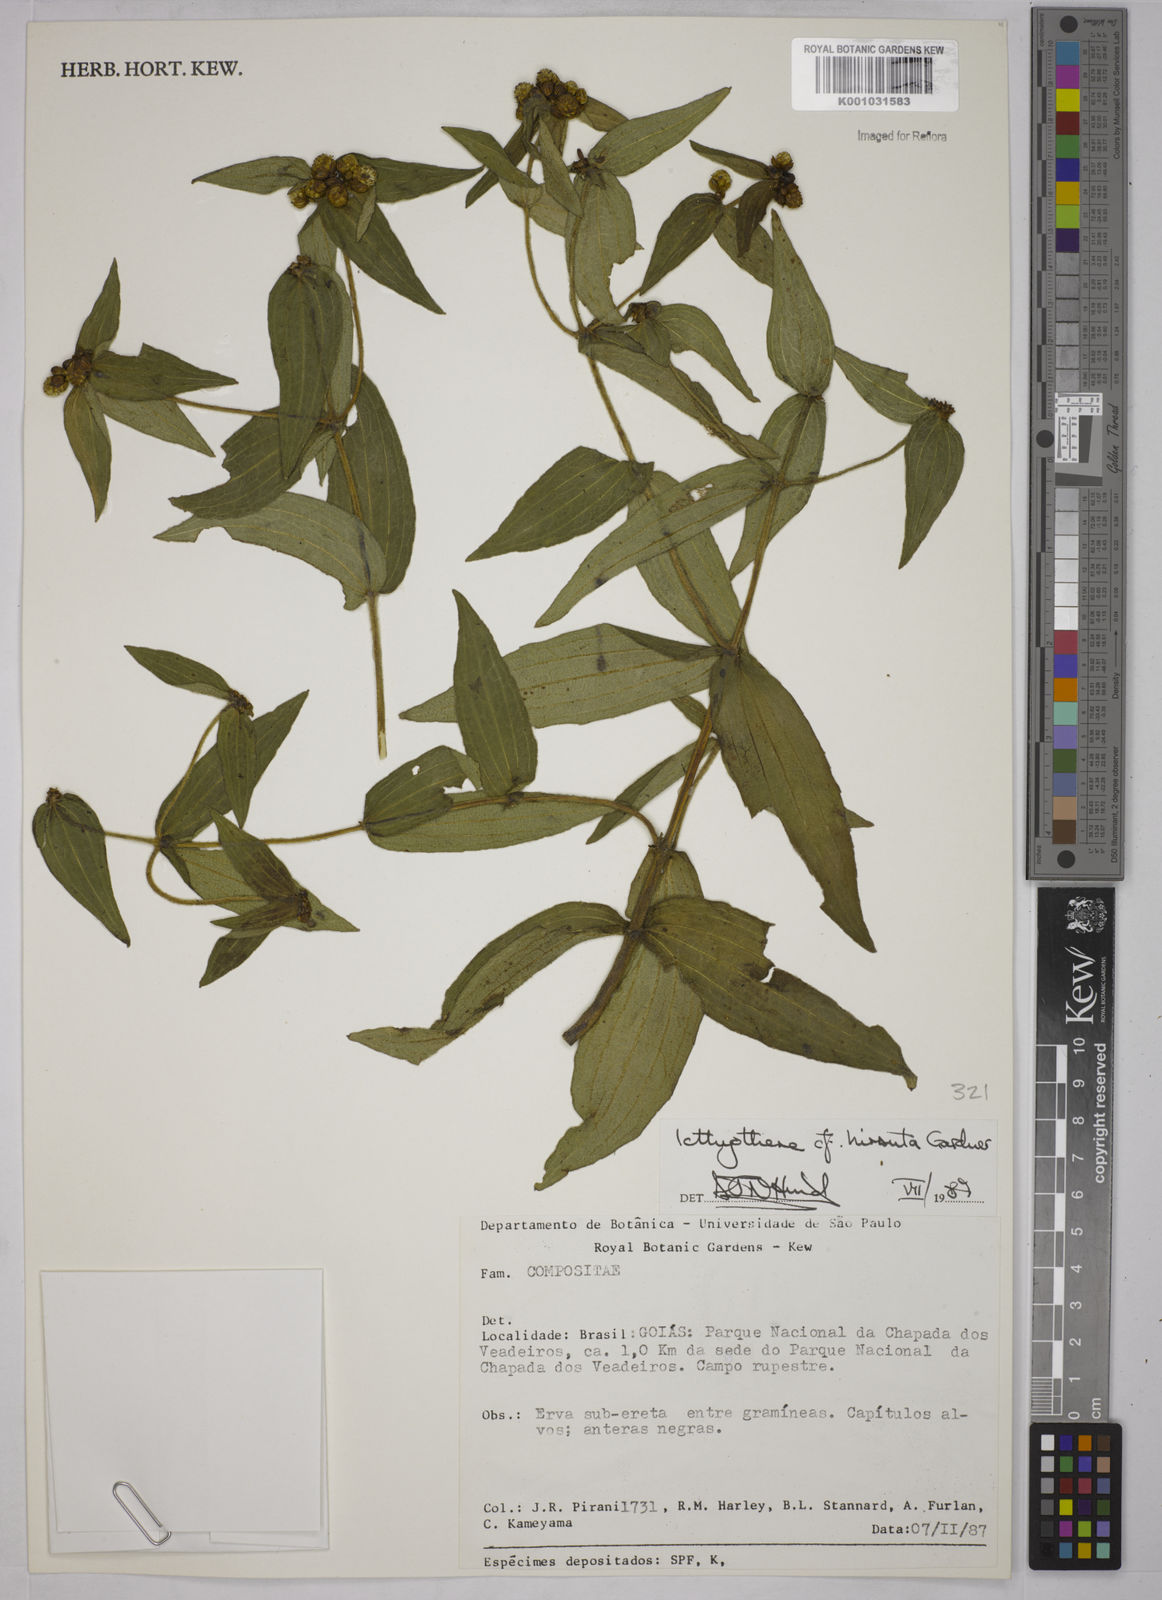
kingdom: Plantae
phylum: Tracheophyta
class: Magnoliopsida
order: Asterales
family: Asteraceae
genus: Ichthyothere
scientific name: Ichthyothere hirsuta
